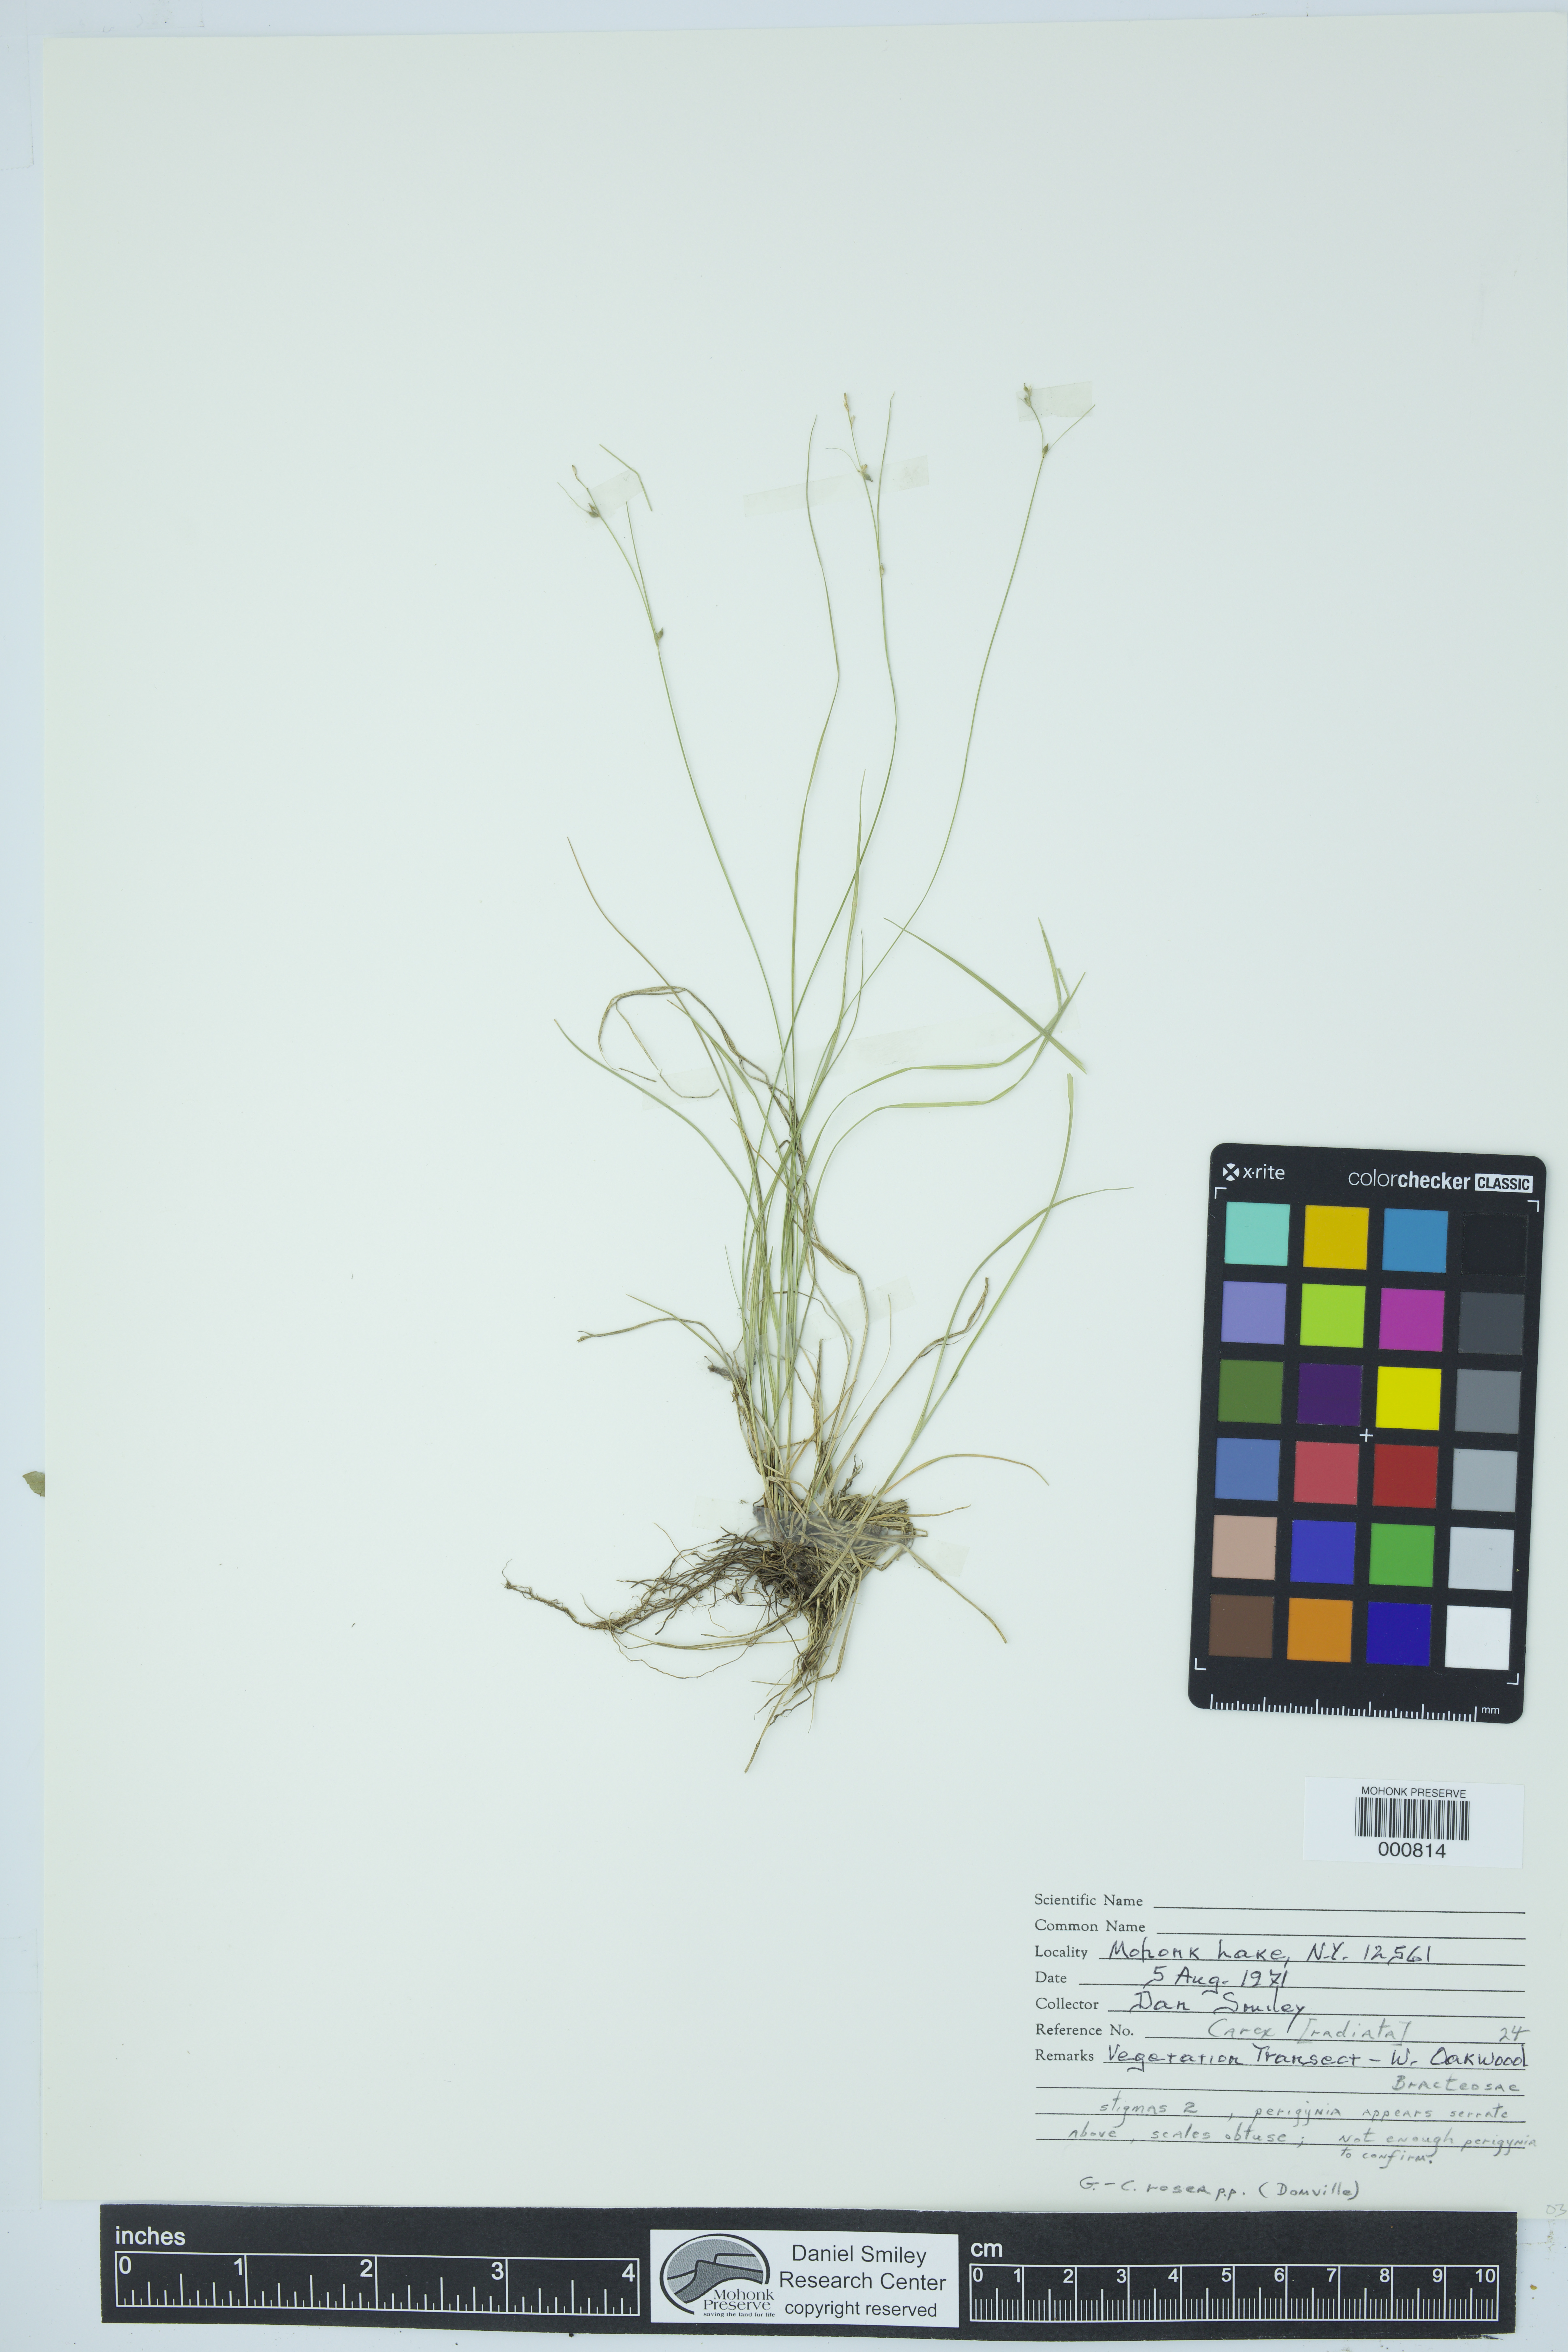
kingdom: Plantae
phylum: Tracheophyta
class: Liliopsida
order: Poales
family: Cyperaceae
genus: Carex
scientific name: Carex radiata
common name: Eastern star sedge
